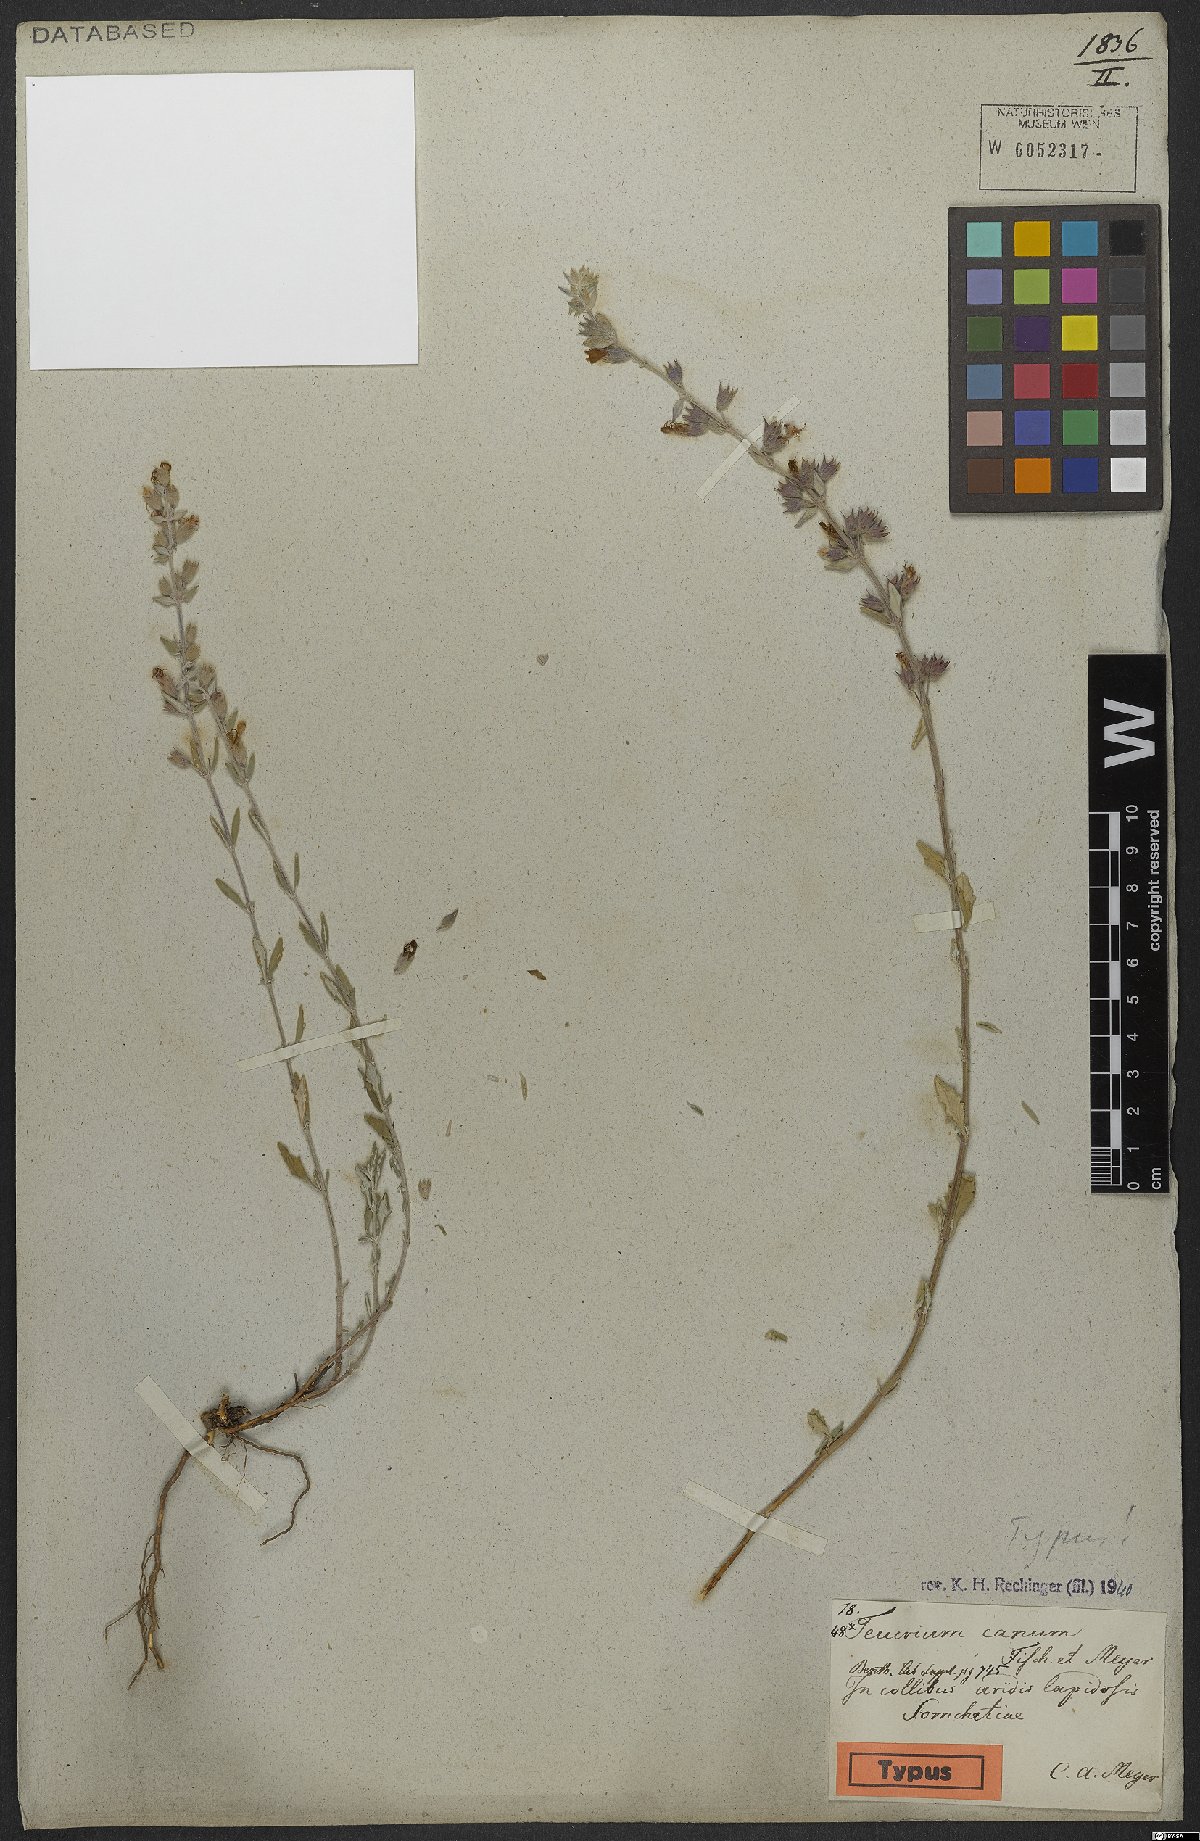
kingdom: Plantae
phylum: Tracheophyta
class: Magnoliopsida
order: Lamiales
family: Lamiaceae
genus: Teucrium
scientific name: Teucrium canum
